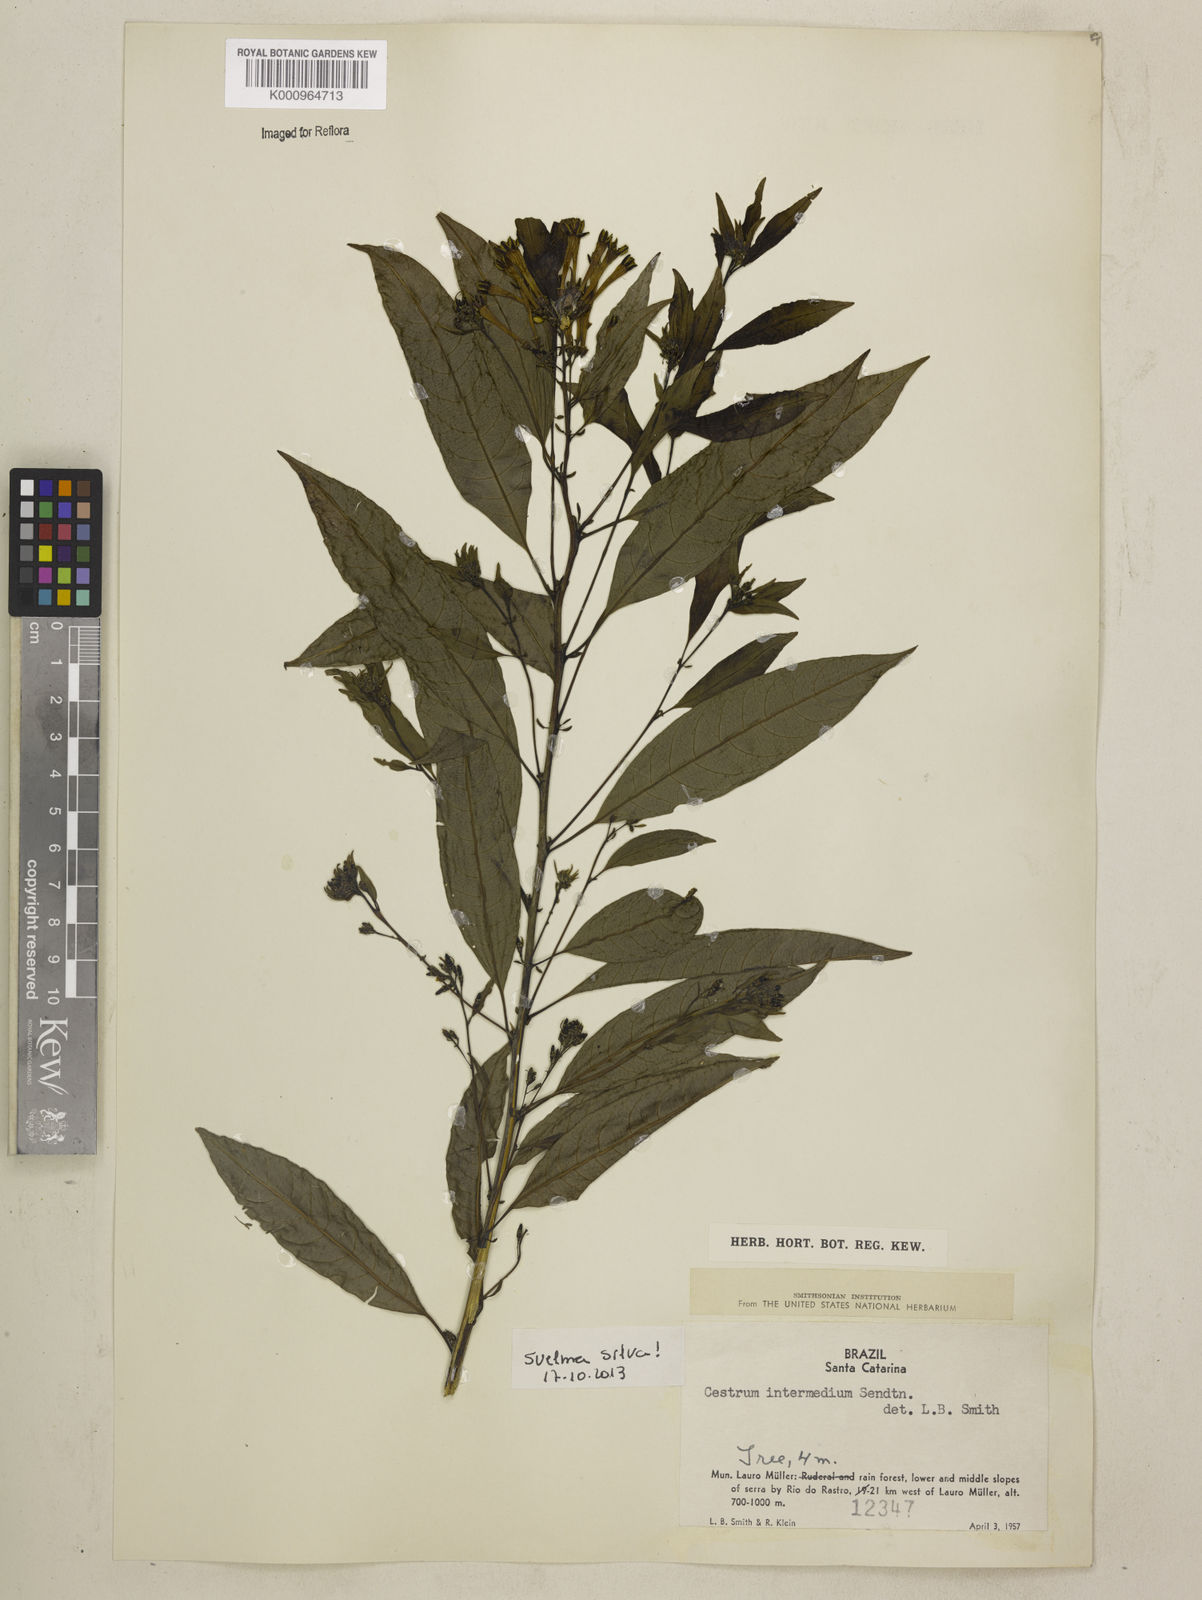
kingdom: Plantae
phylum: Tracheophyta
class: Magnoliopsida
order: Solanales
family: Solanaceae
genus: Cestrum
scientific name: Cestrum intermedium
